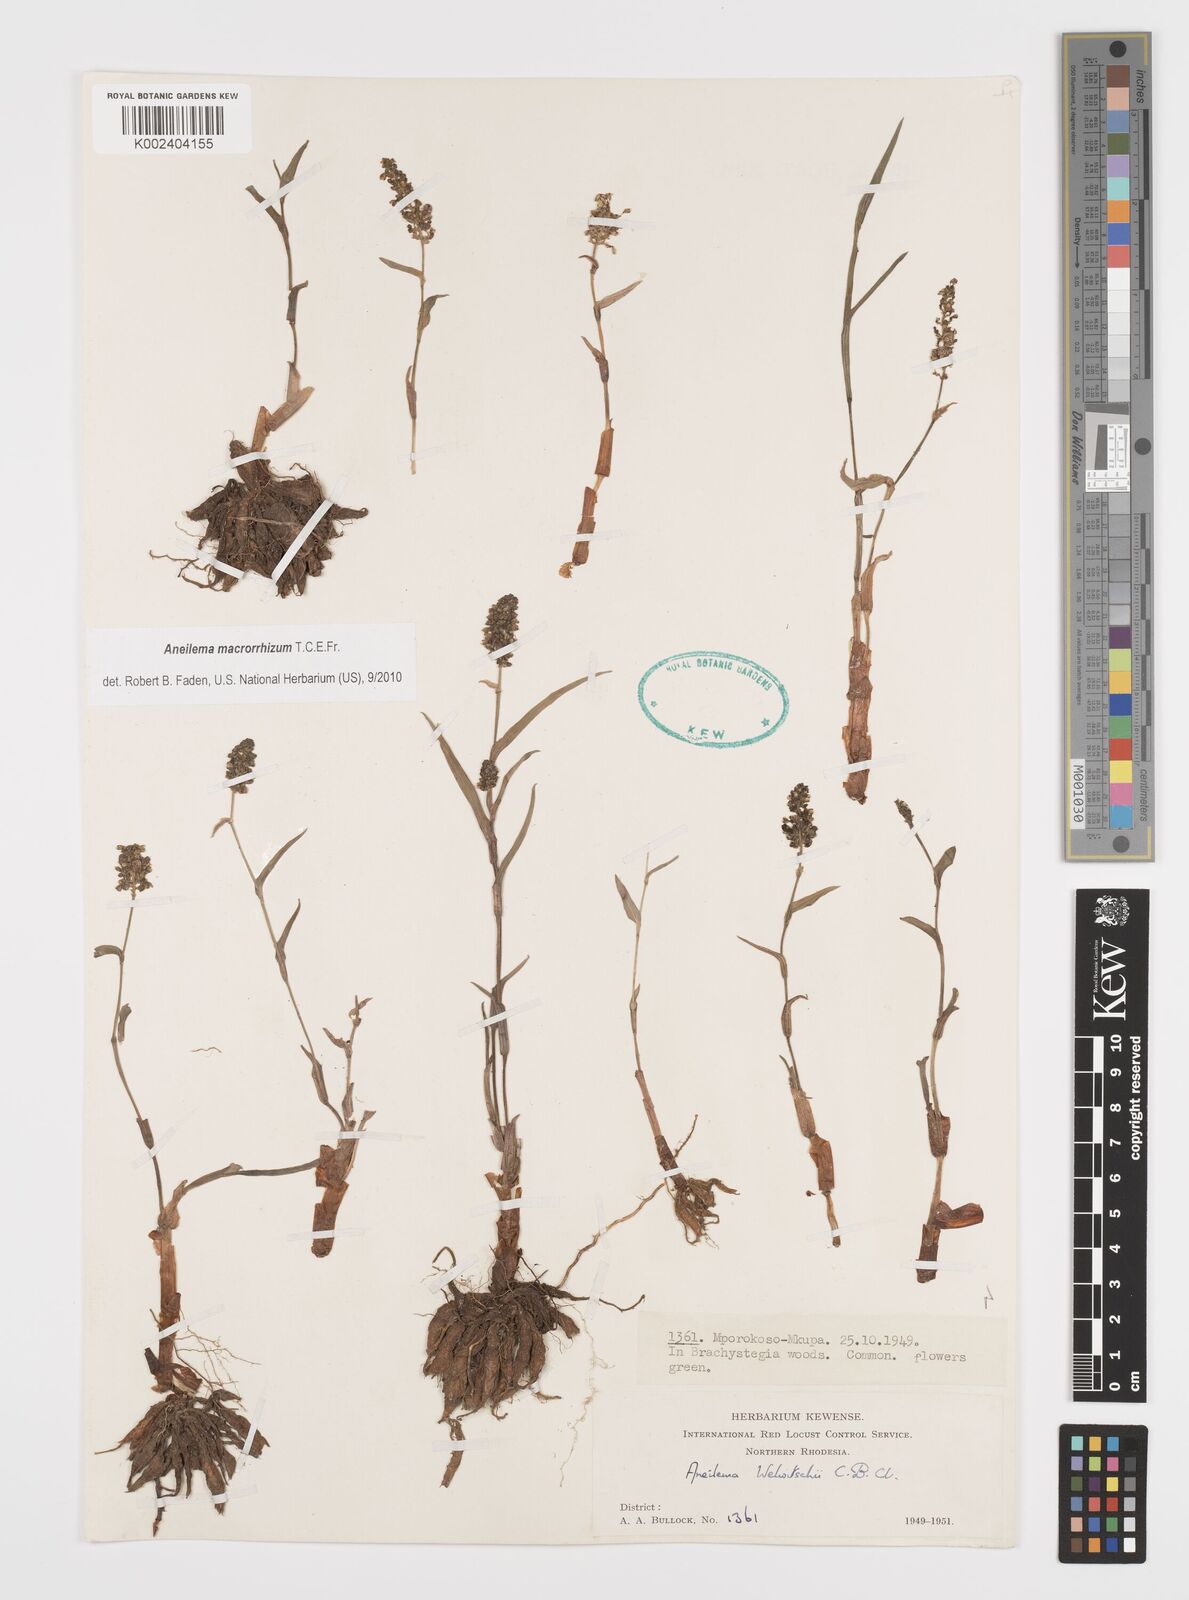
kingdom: Plantae
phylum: Tracheophyta
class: Liliopsida
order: Commelinales
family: Commelinaceae
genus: Aneilema
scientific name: Aneilema macrorrhizum
